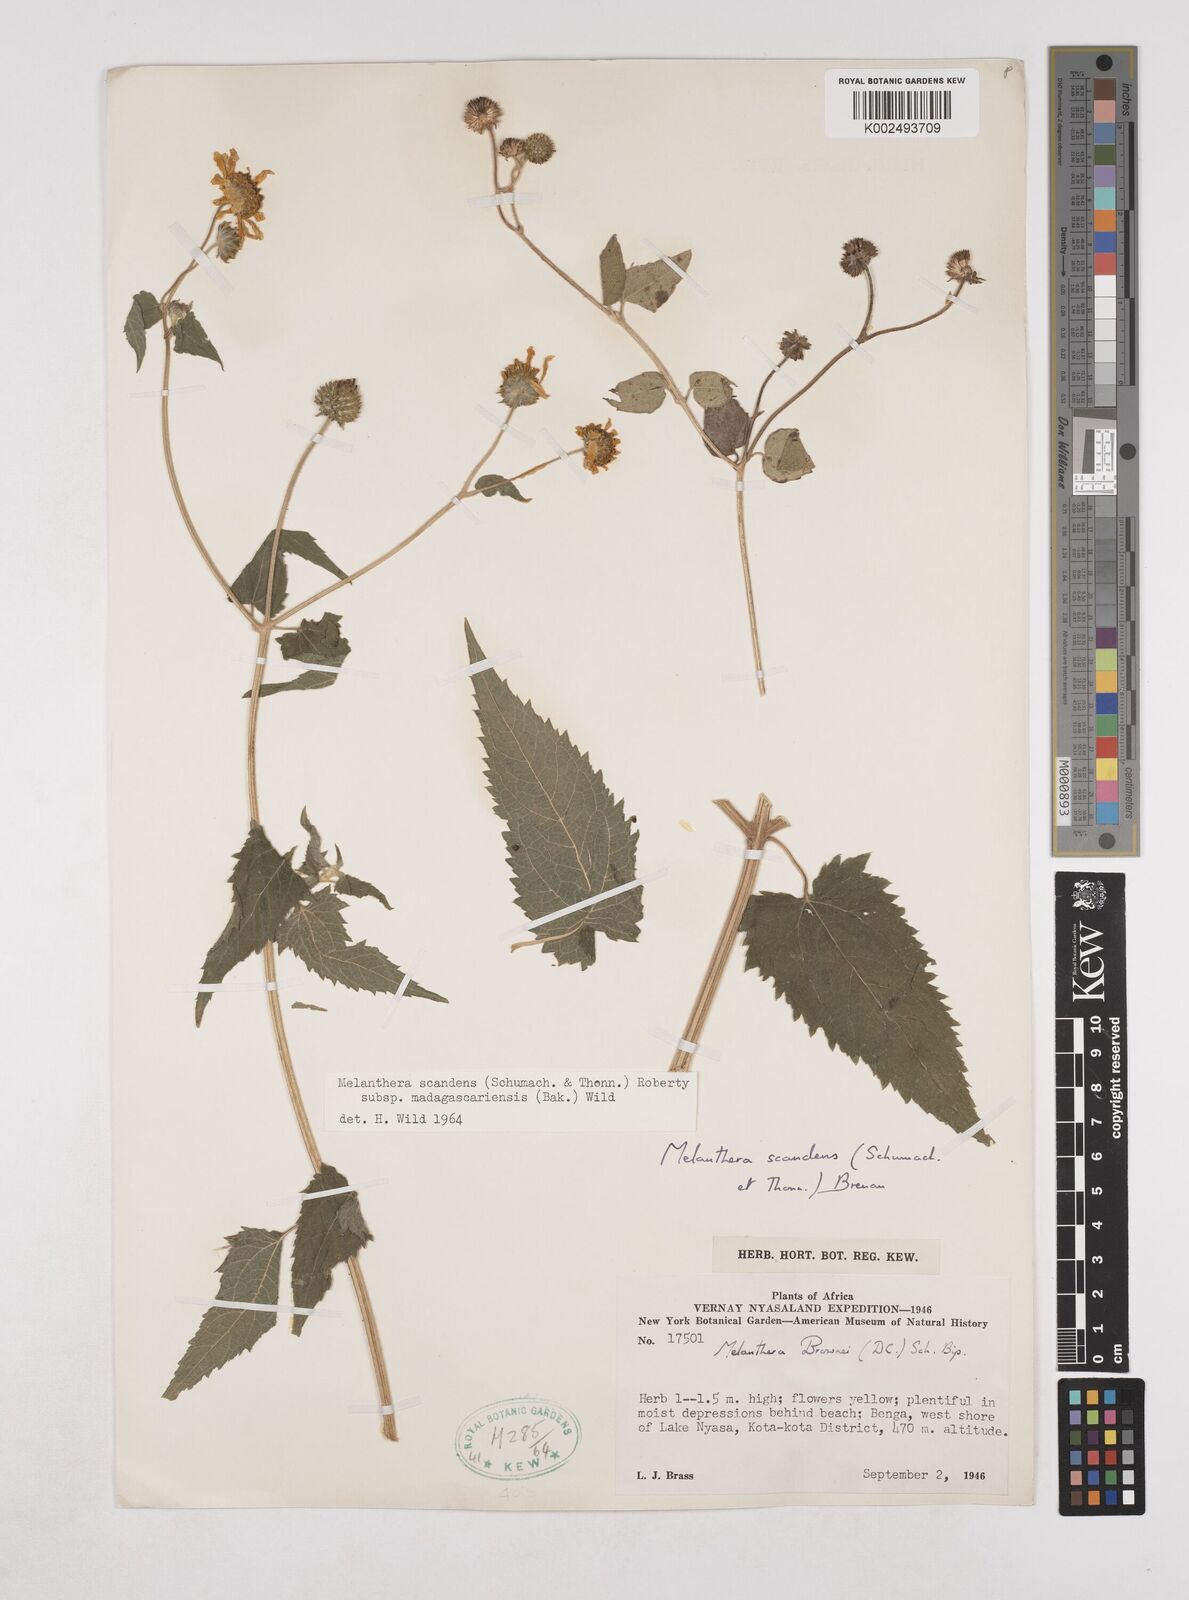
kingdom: Plantae
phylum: Tracheophyta
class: Magnoliopsida
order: Asterales
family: Asteraceae
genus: Lipotriche
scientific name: Lipotriche scandens
